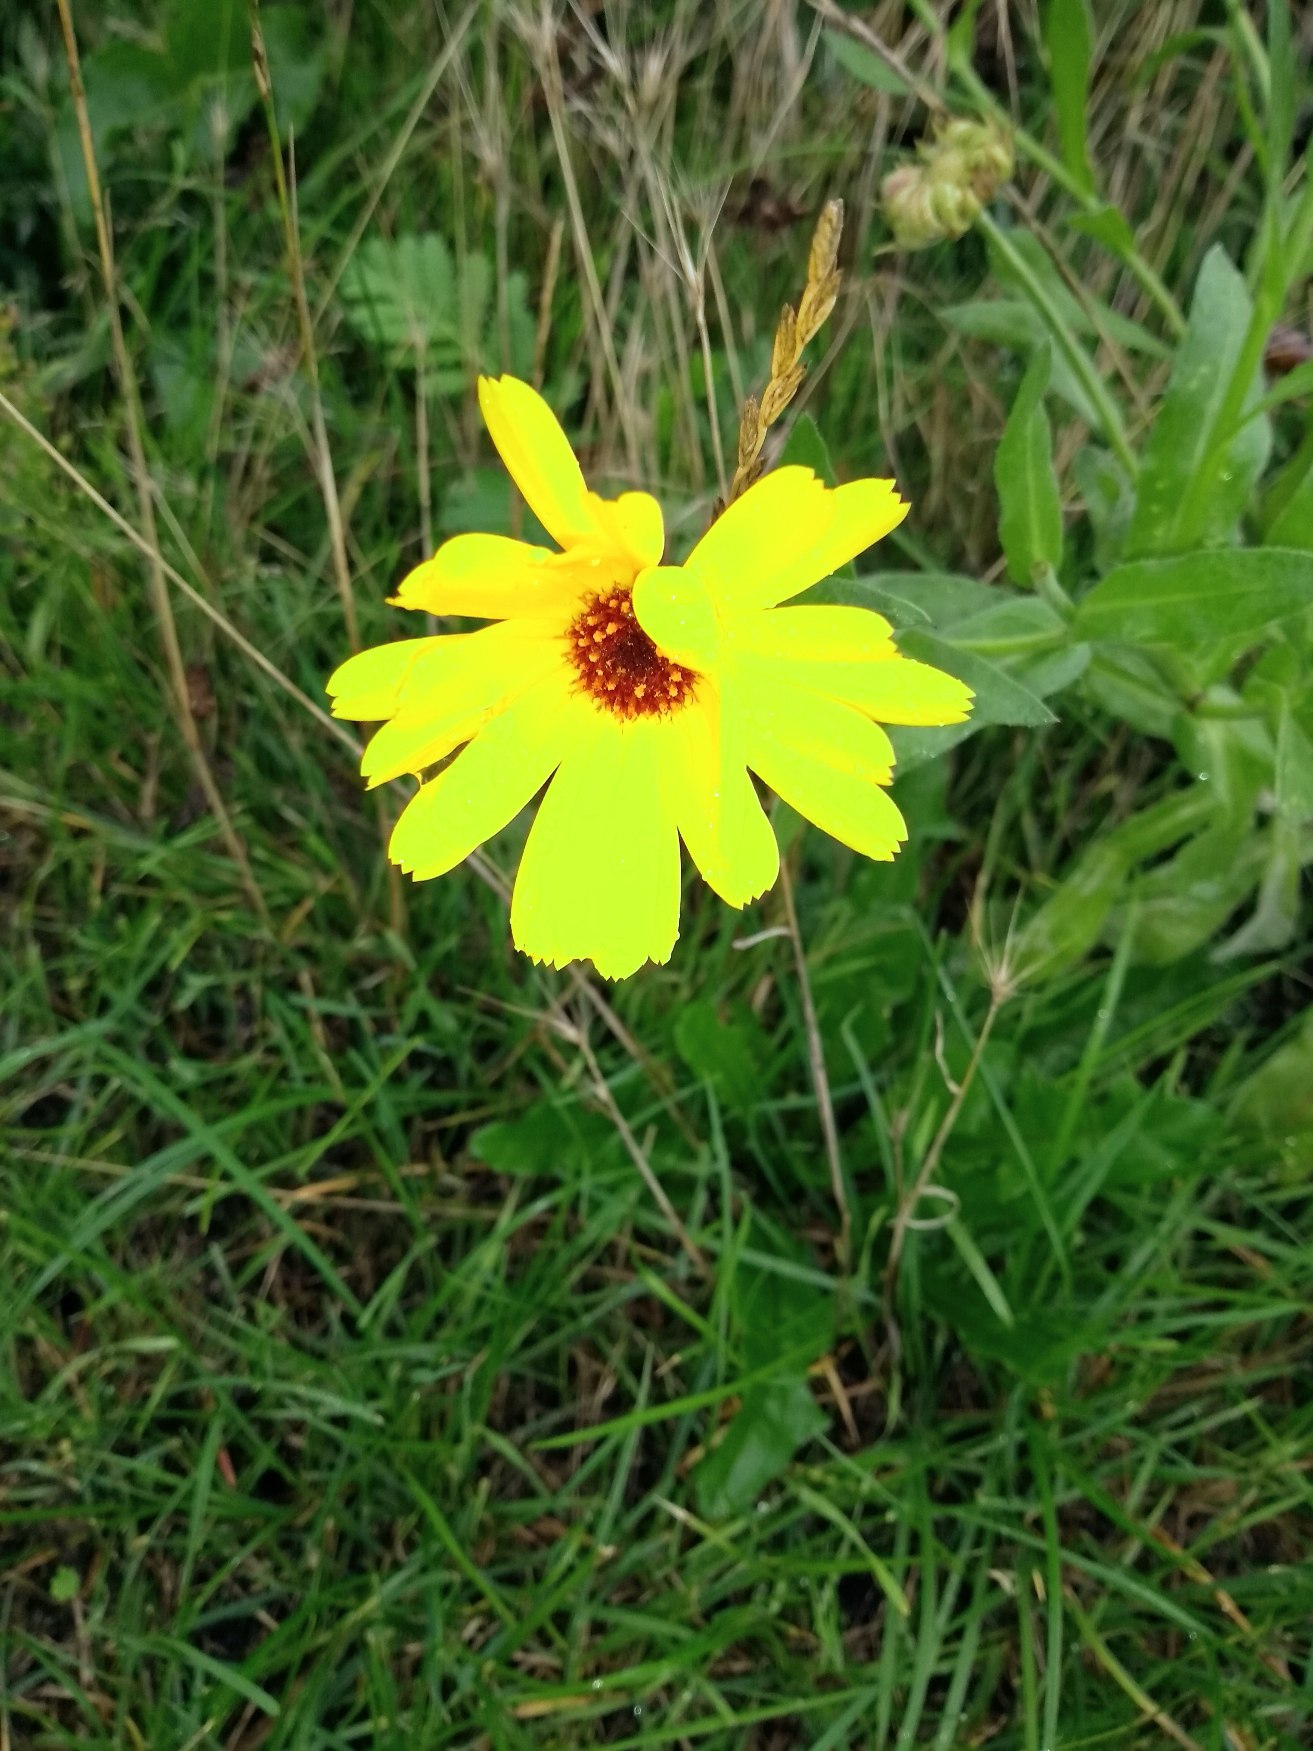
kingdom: Plantae
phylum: Tracheophyta
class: Magnoliopsida
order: Asterales
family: Asteraceae
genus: Calendula
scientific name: Calendula officinalis
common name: Have-morgenfrue
